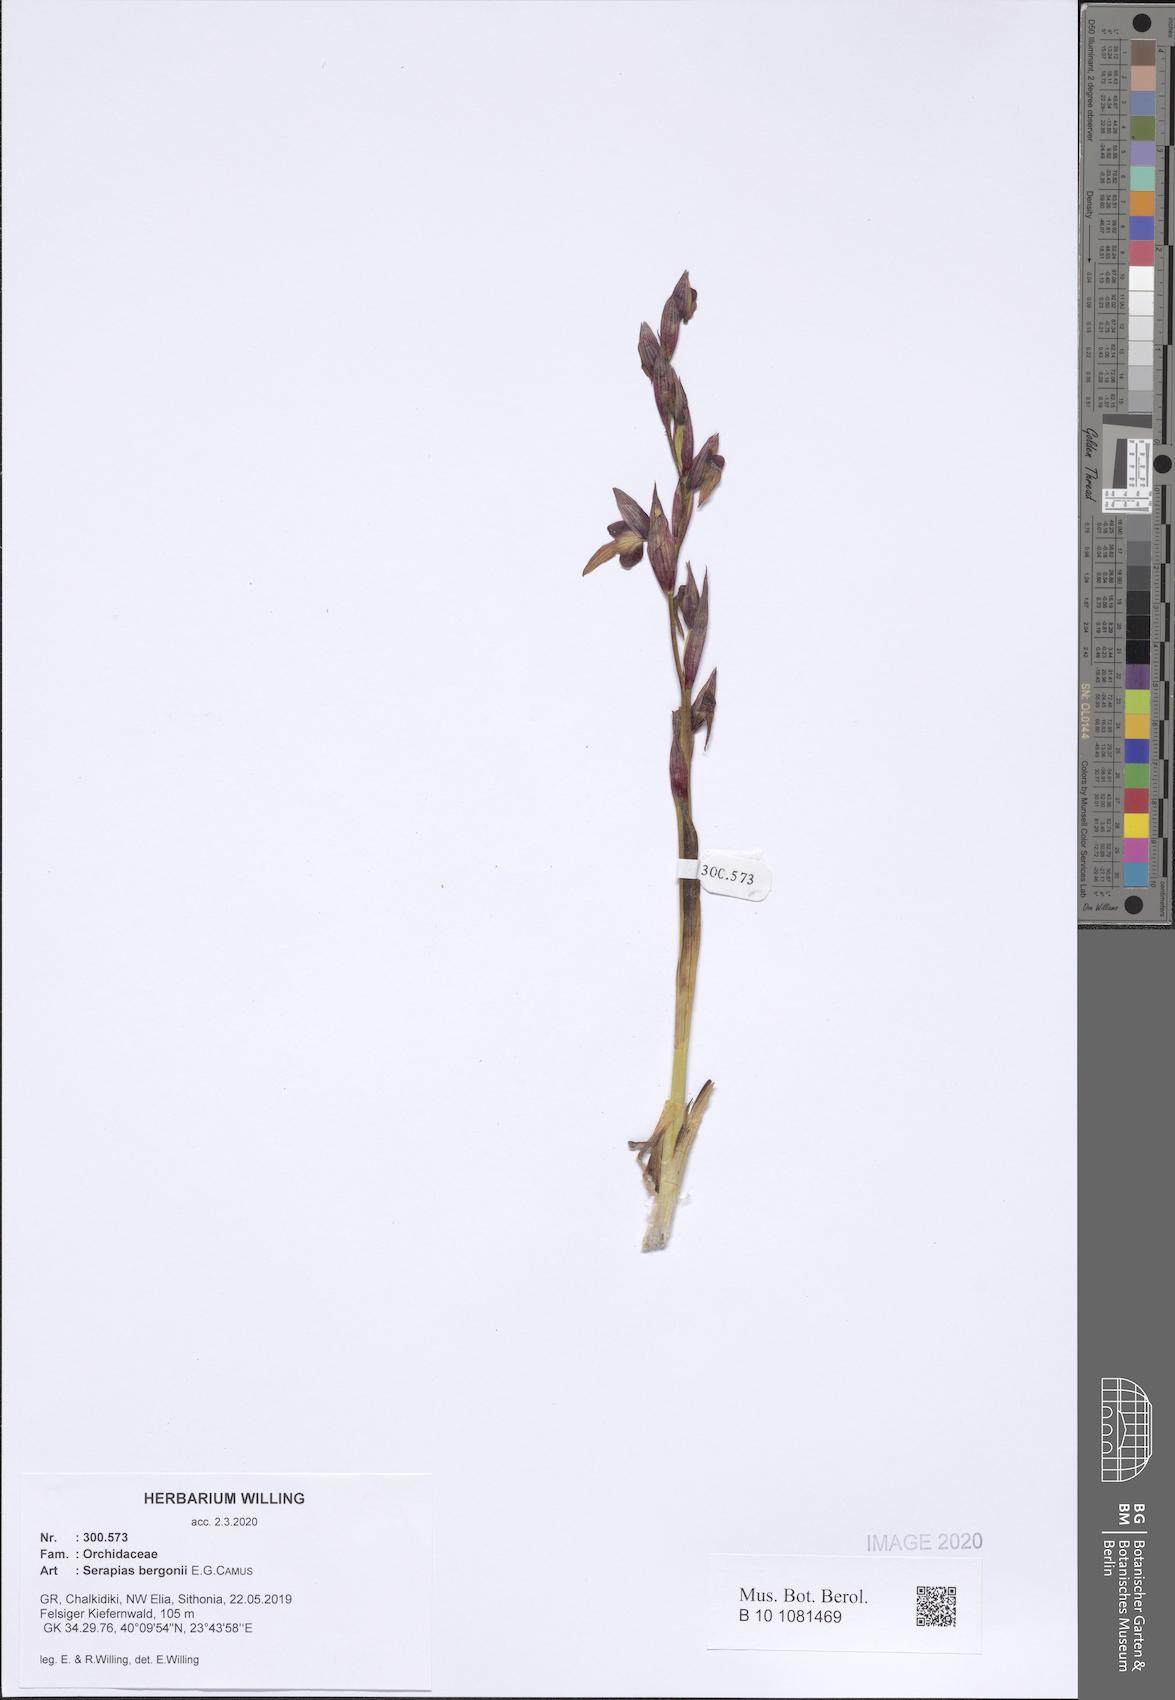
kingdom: Plantae
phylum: Tracheophyta
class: Liliopsida
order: Asparagales
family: Orchidaceae
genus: Serapias
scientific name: Serapias bergonii
